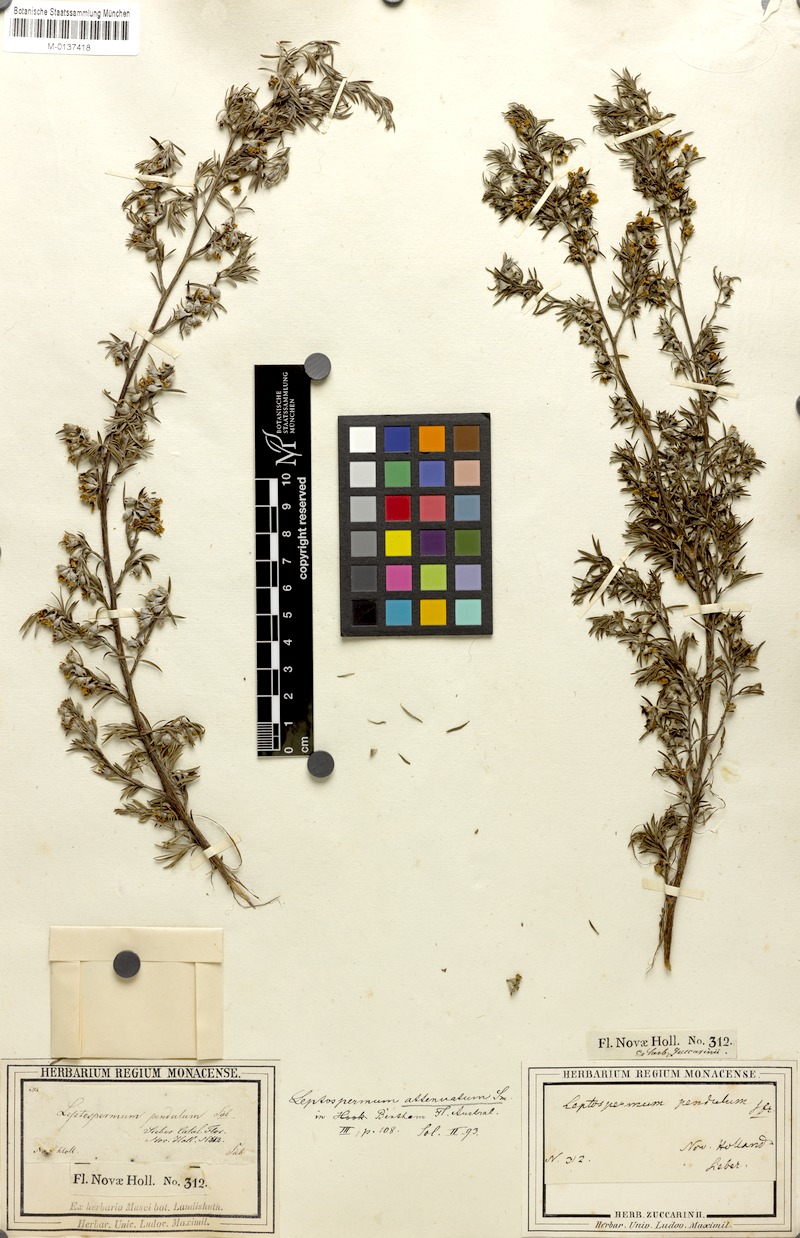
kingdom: Plantae
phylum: Tracheophyta
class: Magnoliopsida
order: Myrtales
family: Myrtaceae
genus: Leptospermum
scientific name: Leptospermum trinervium
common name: Flaky-barked tea-tree
